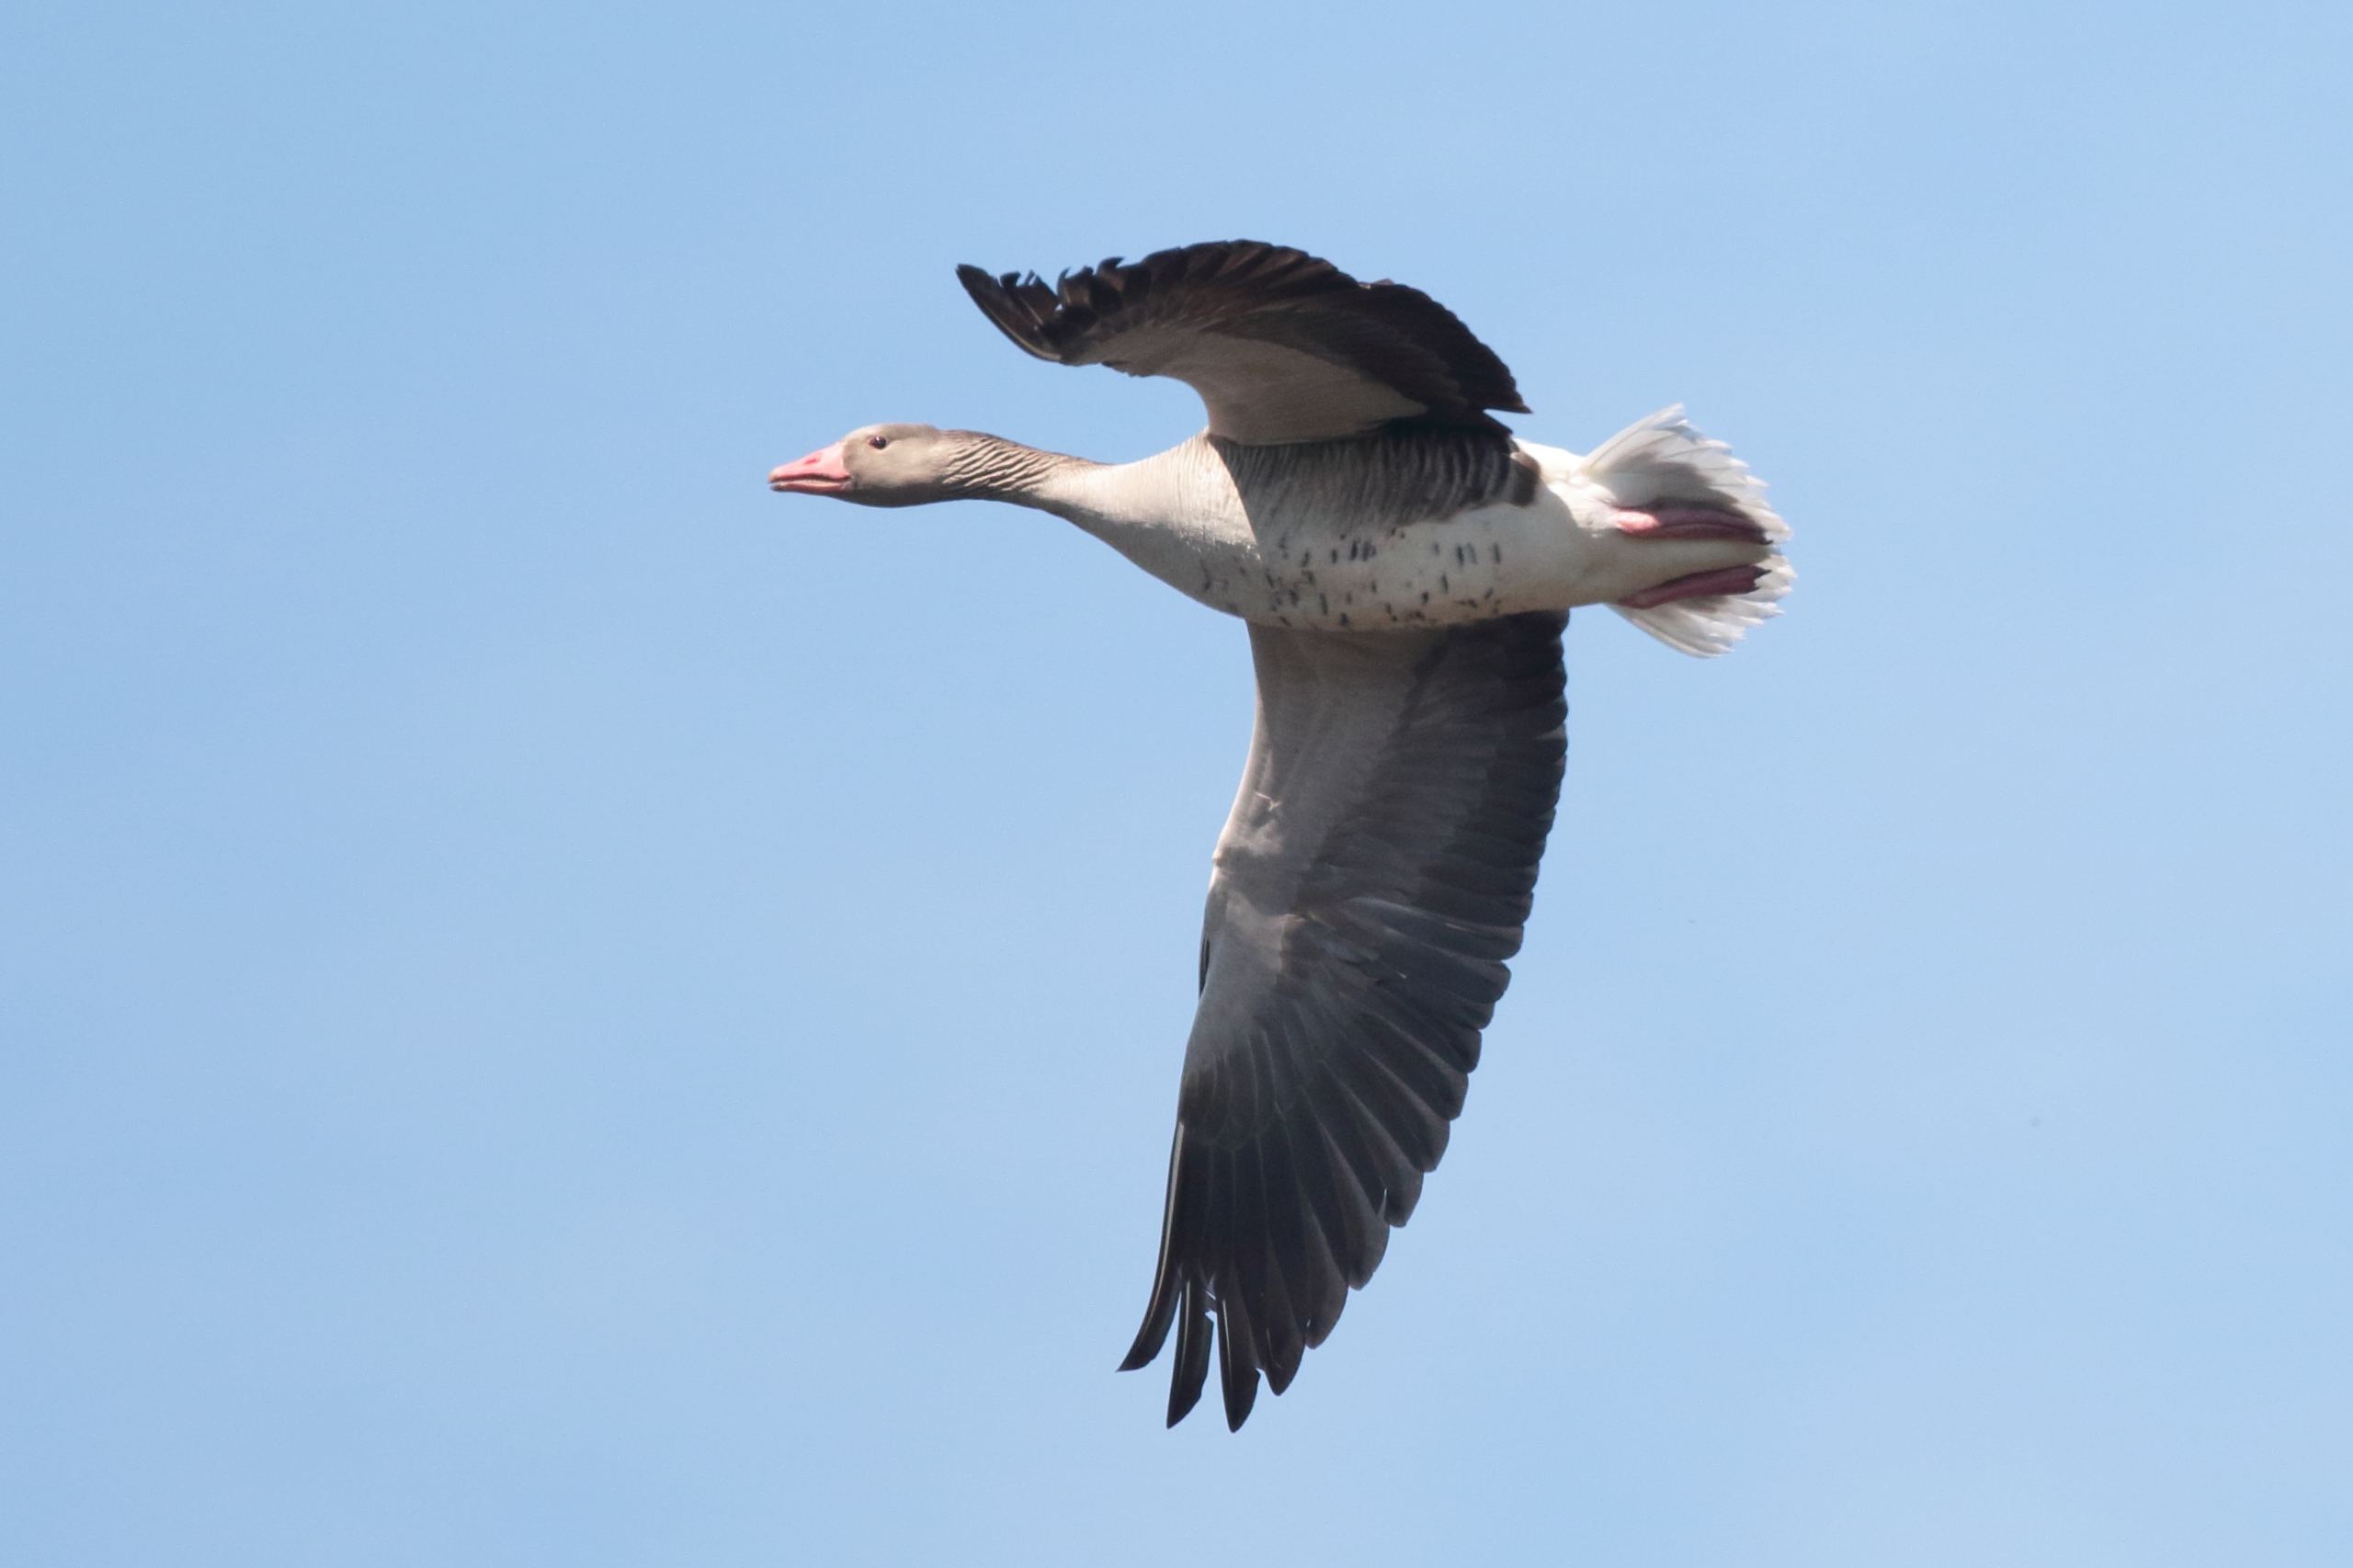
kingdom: Animalia
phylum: Chordata
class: Aves
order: Anseriformes
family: Anatidae
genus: Anser
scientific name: Anser anser
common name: Grågås
